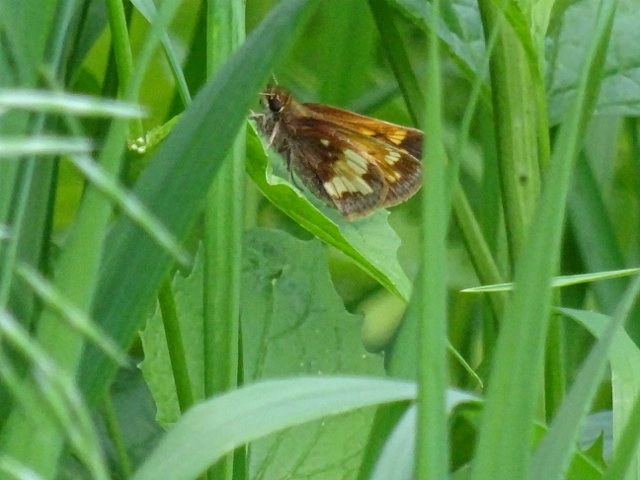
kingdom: Animalia
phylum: Arthropoda
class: Insecta
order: Lepidoptera
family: Hesperiidae
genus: Lon
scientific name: Lon hobomok
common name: Hobomok Skipper
